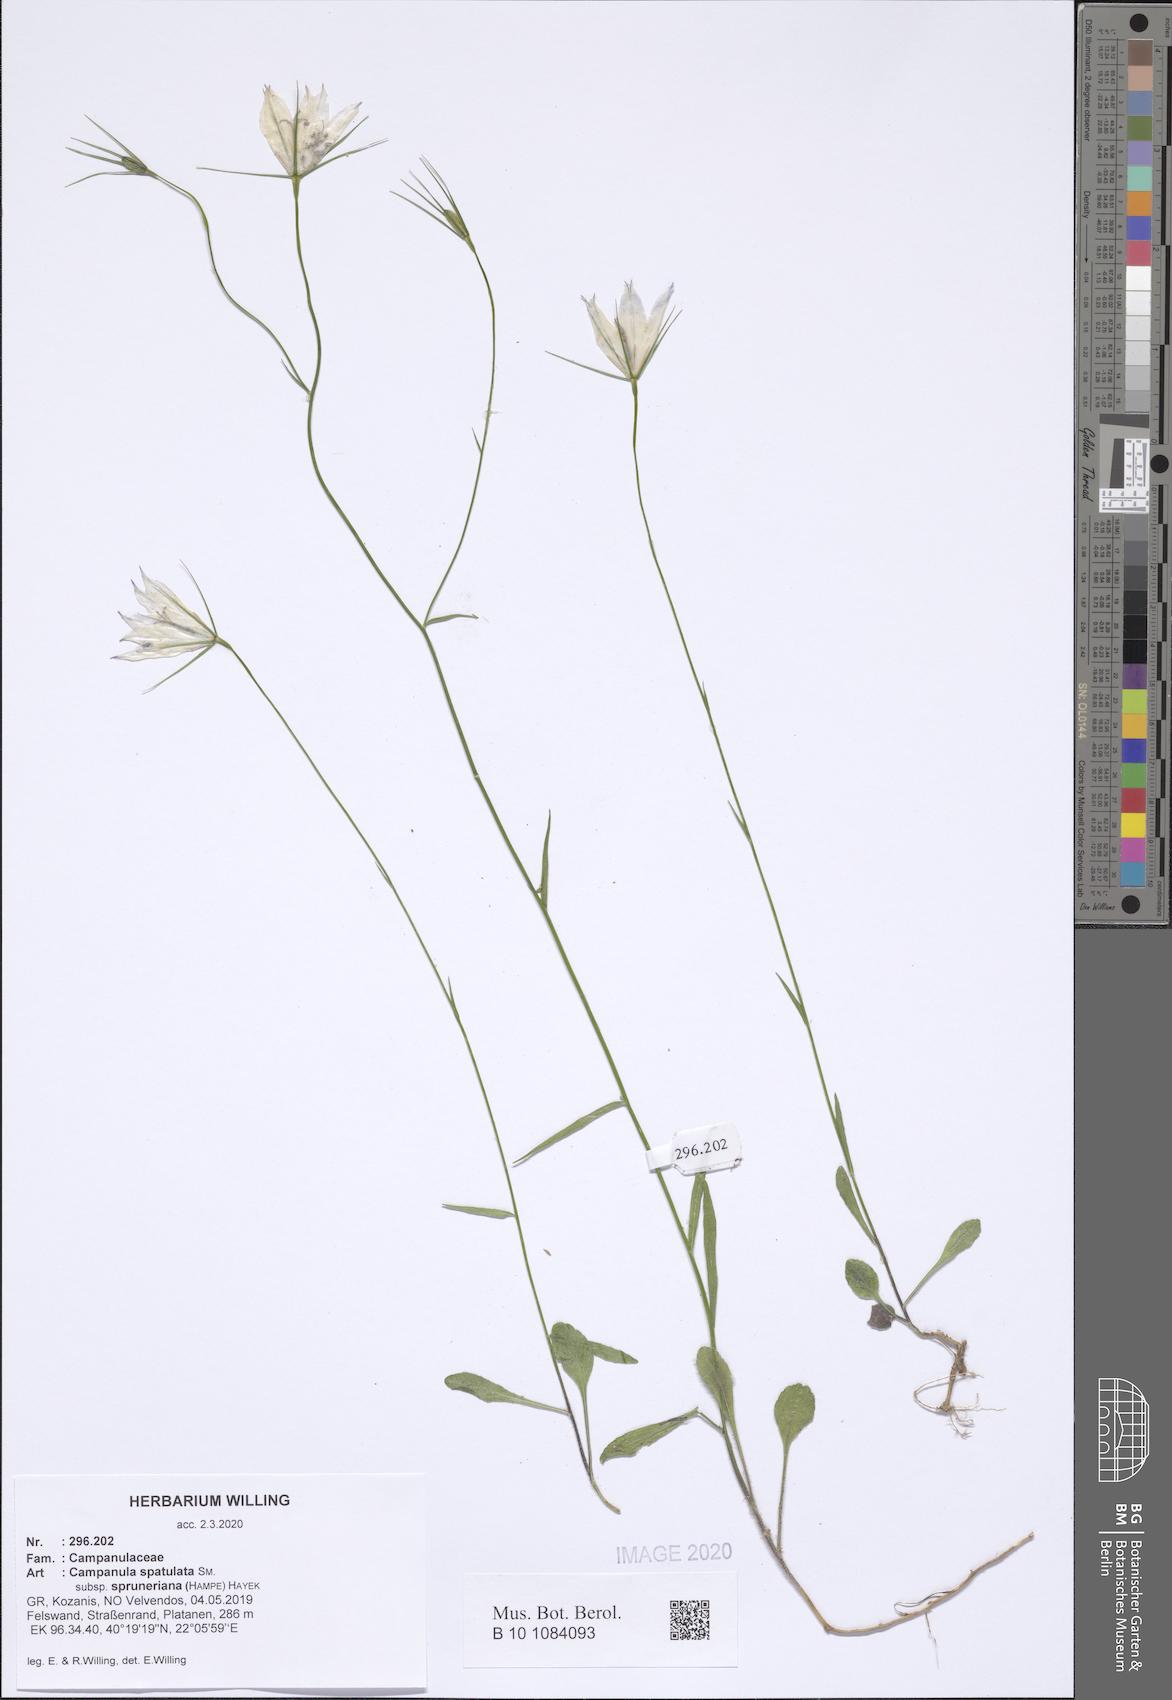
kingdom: Plantae
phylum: Tracheophyta
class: Magnoliopsida
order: Asterales
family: Campanulaceae
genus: Campanula
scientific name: Campanula spatulata
